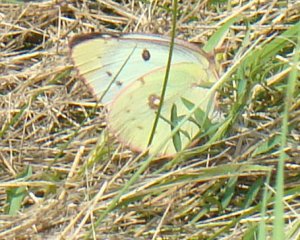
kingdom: Animalia
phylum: Arthropoda
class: Insecta
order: Lepidoptera
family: Pieridae
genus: Colias
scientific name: Colias philodice
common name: Clouded Sulphur
